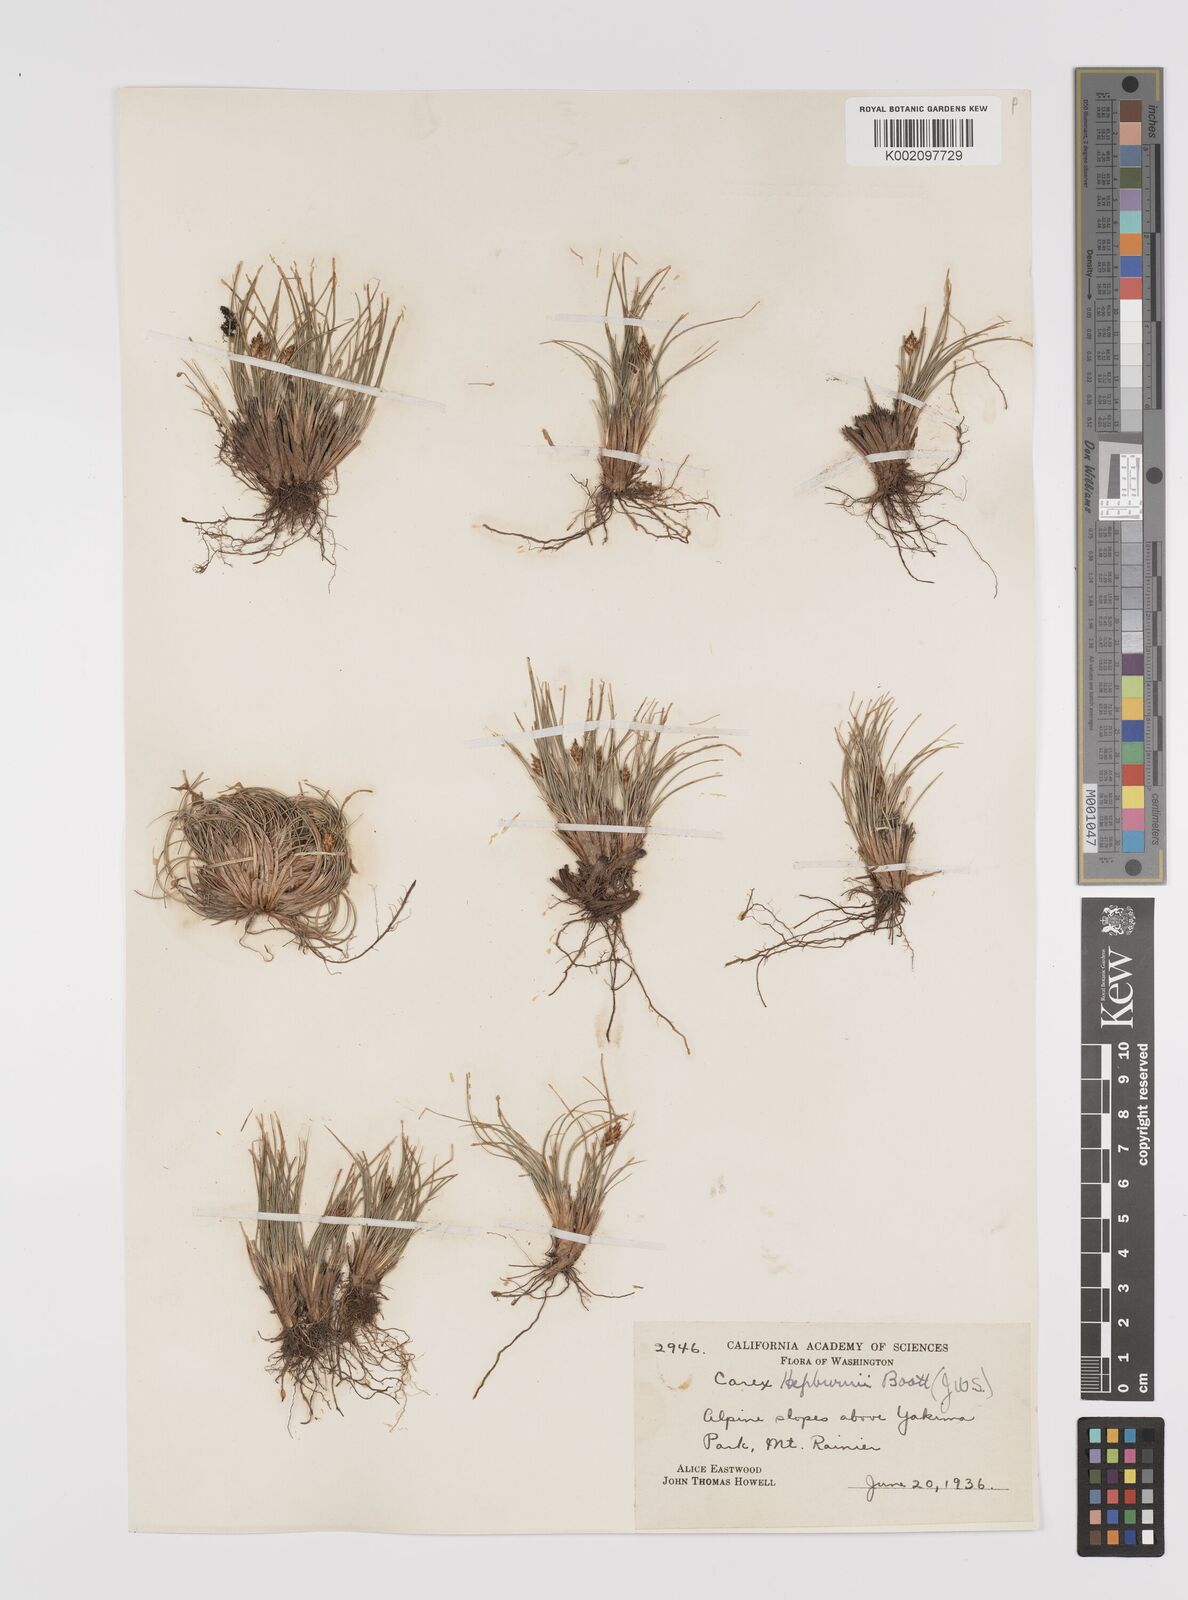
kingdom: Plantae
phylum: Tracheophyta
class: Liliopsida
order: Poales
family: Cyperaceae
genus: Carex
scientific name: Carex nardina
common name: Nard sedge
